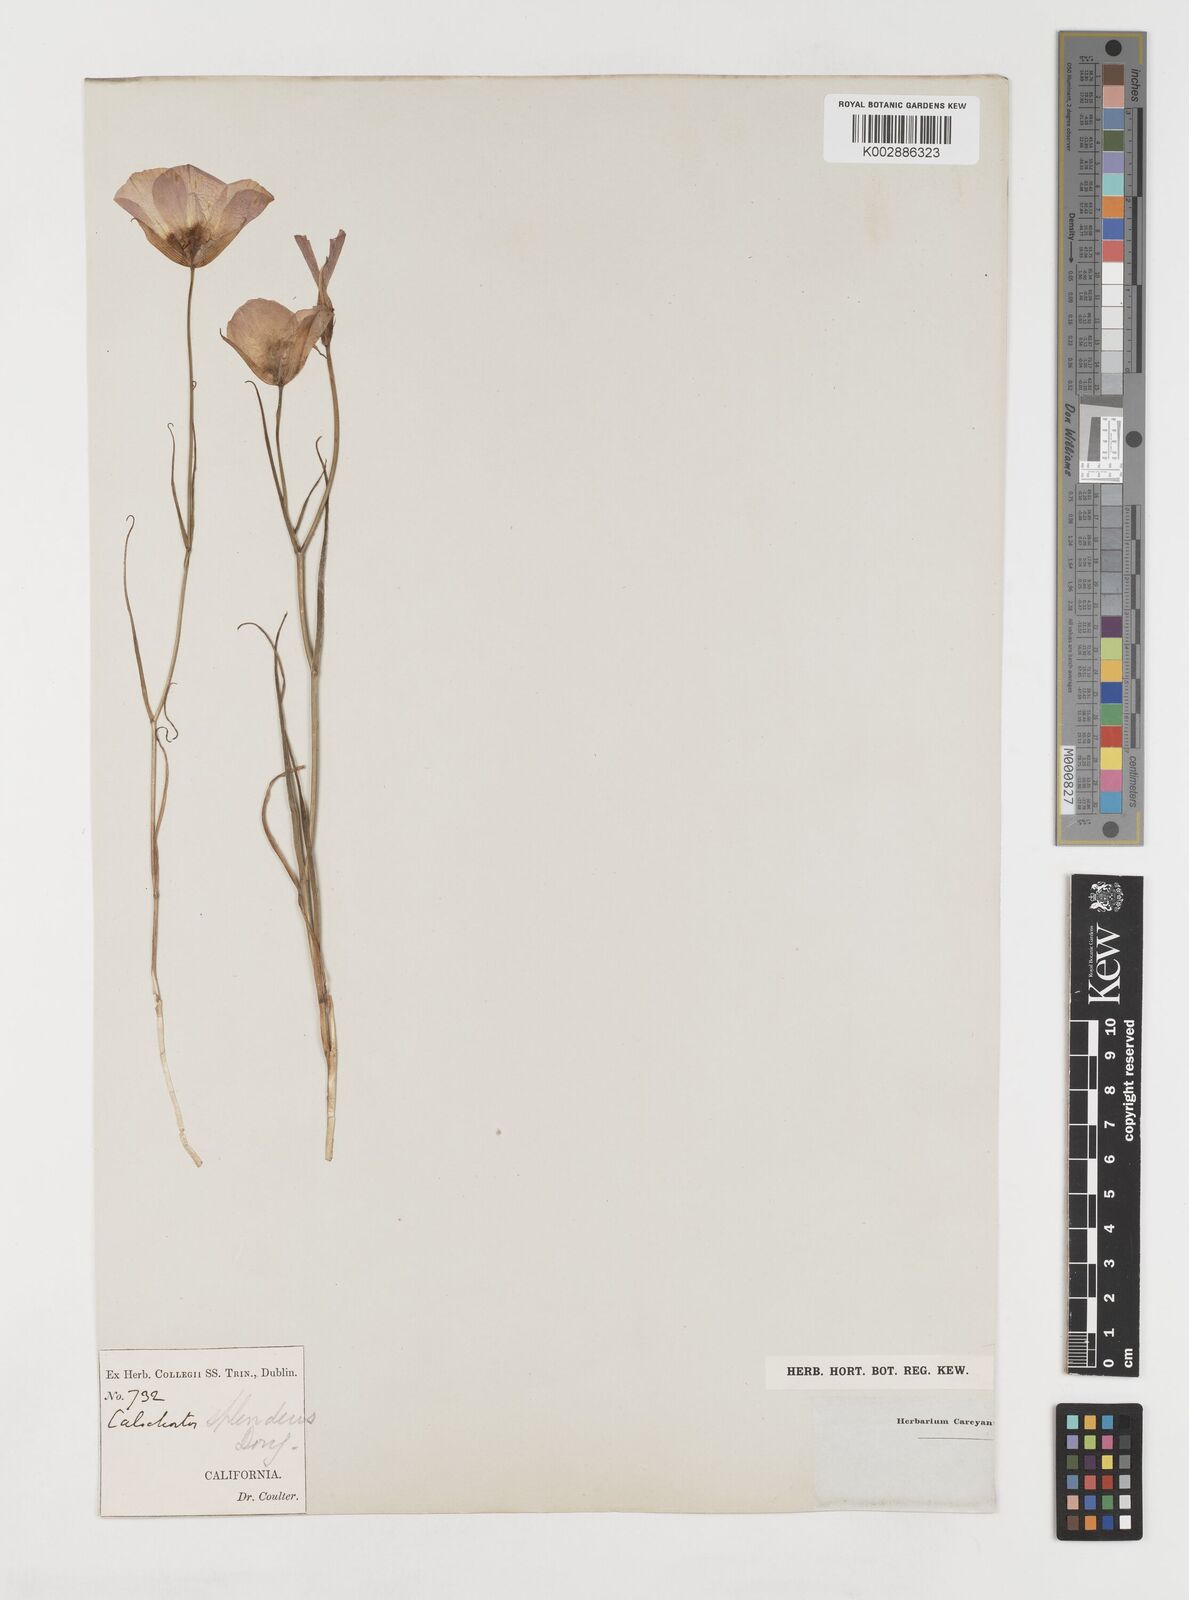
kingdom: Plantae
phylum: Tracheophyta
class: Liliopsida
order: Liliales
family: Liliaceae
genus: Calochortus
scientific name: Calochortus splendens
